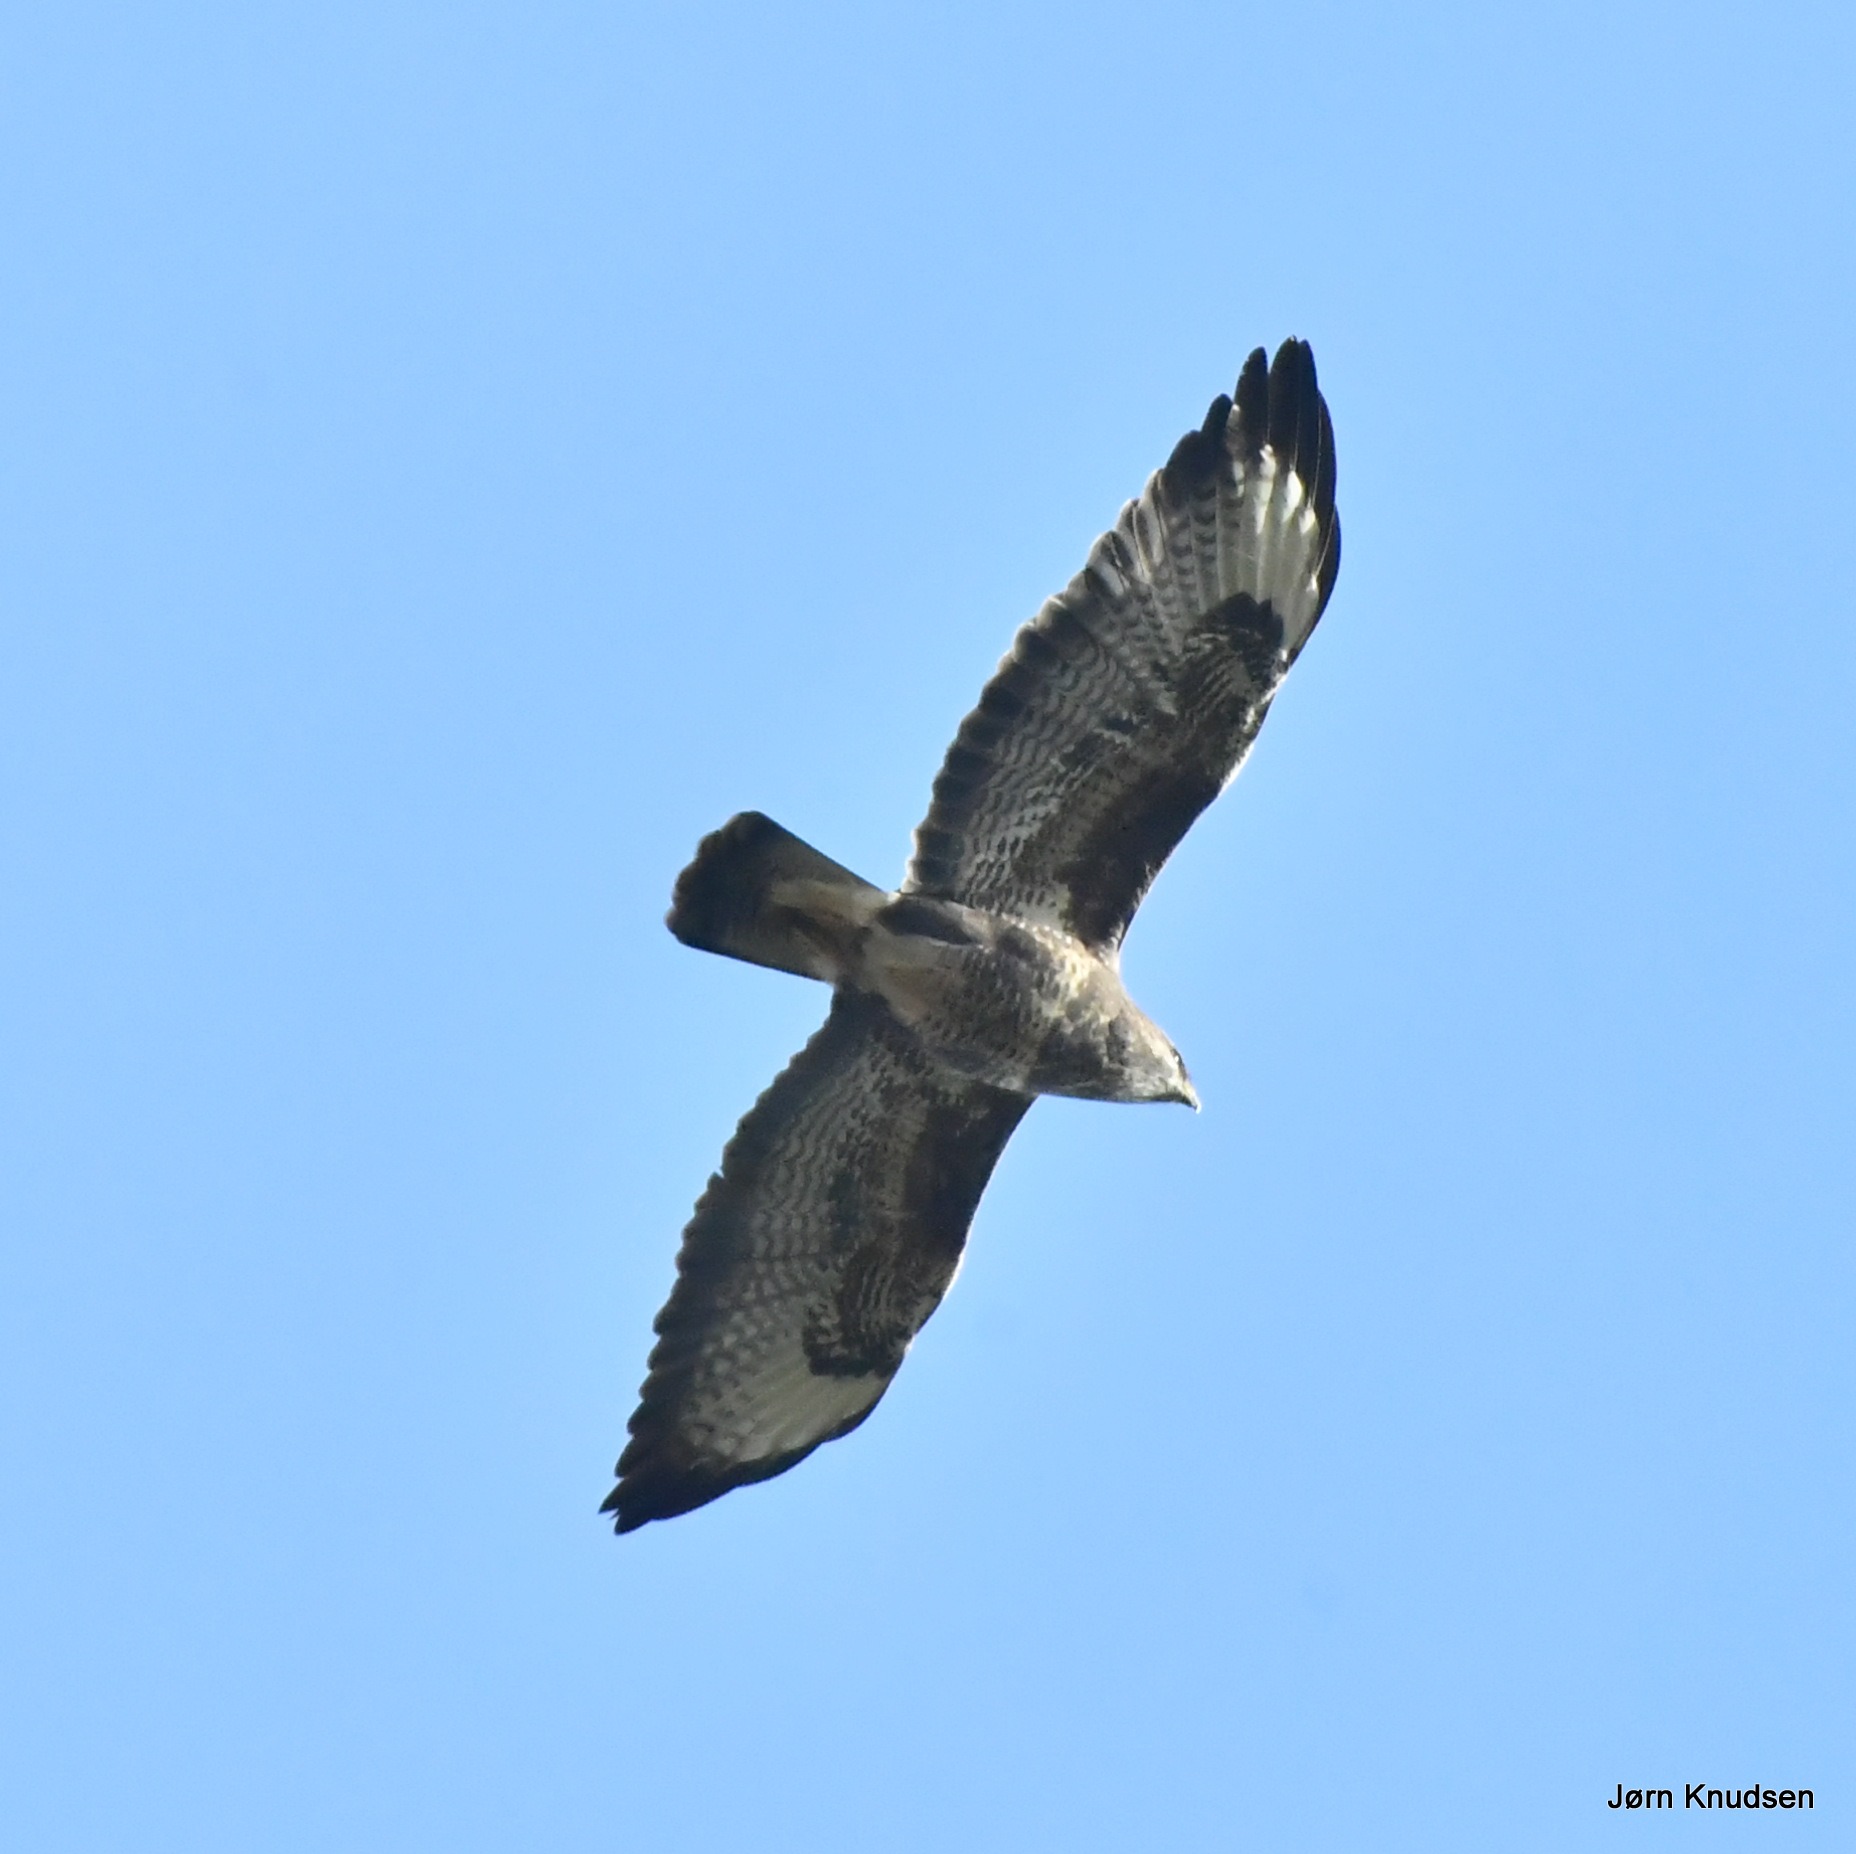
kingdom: Animalia
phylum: Chordata
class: Aves
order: Accipitriformes
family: Accipitridae
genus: Buteo
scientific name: Buteo buteo
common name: Musvåge
